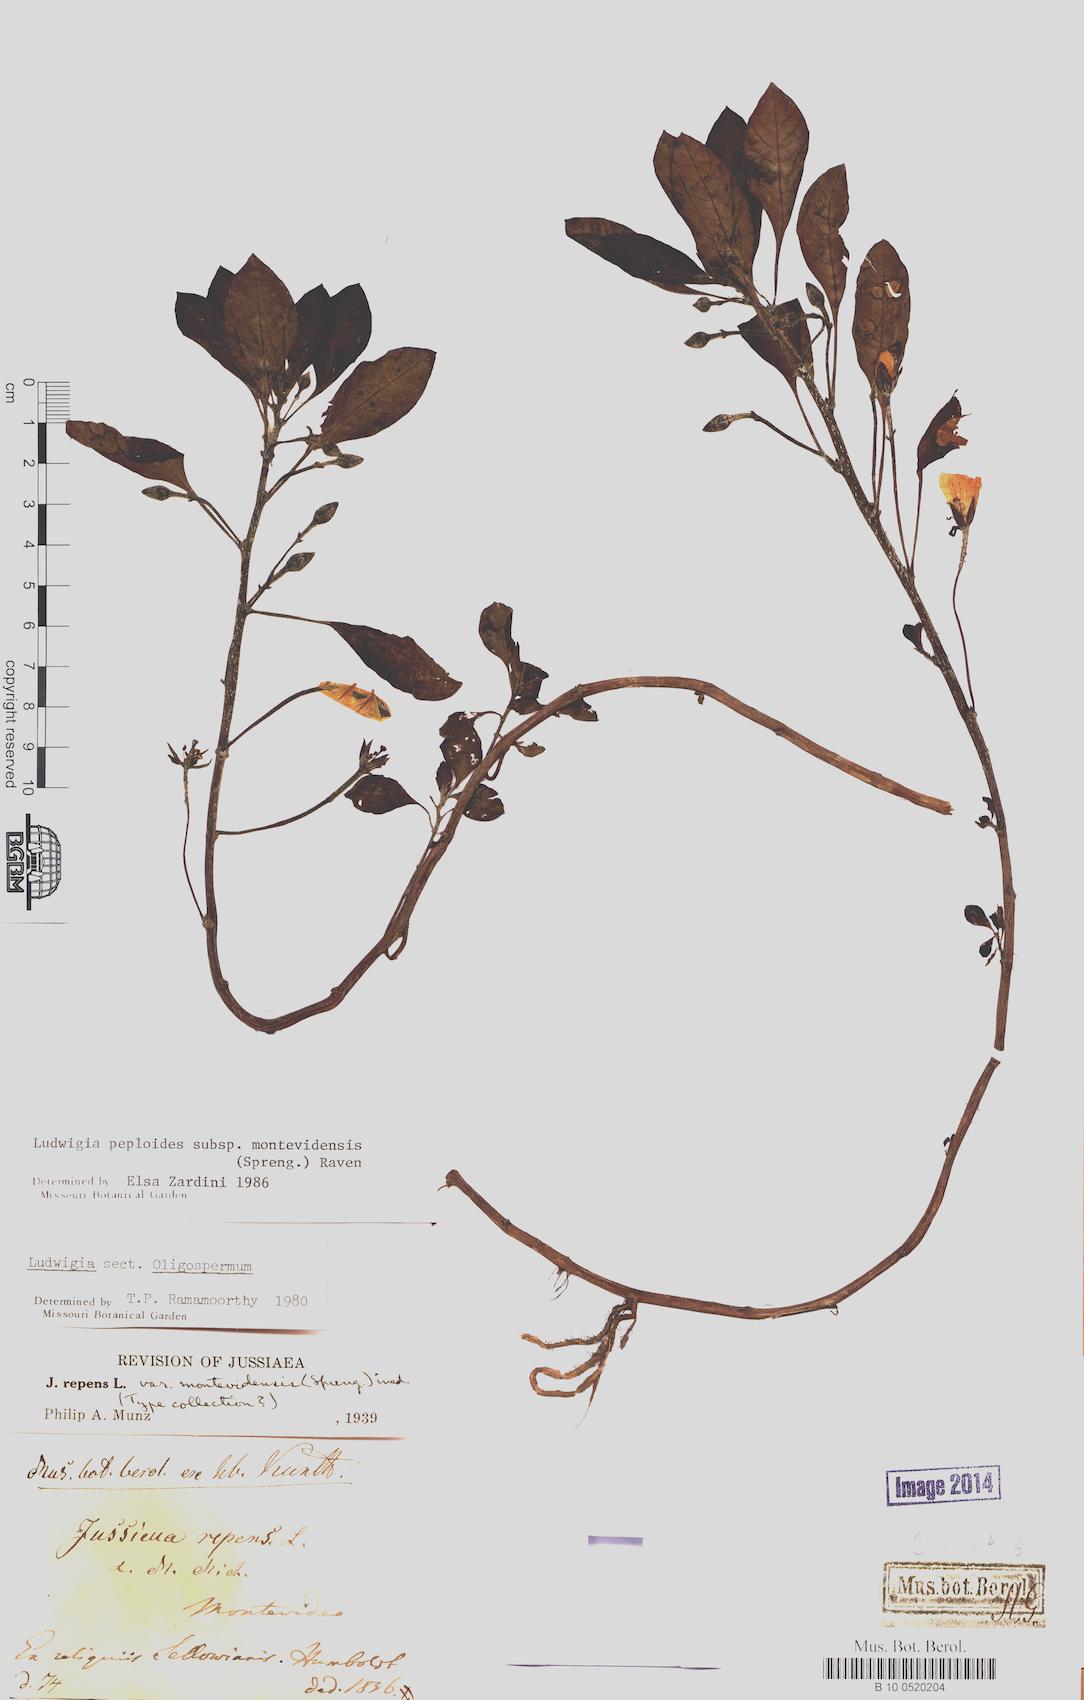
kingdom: Plantae
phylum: Tracheophyta
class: Magnoliopsida
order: Myrtales
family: Onagraceae
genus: Ludwigia
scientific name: Ludwigia peploides
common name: Floating primrose-willow
